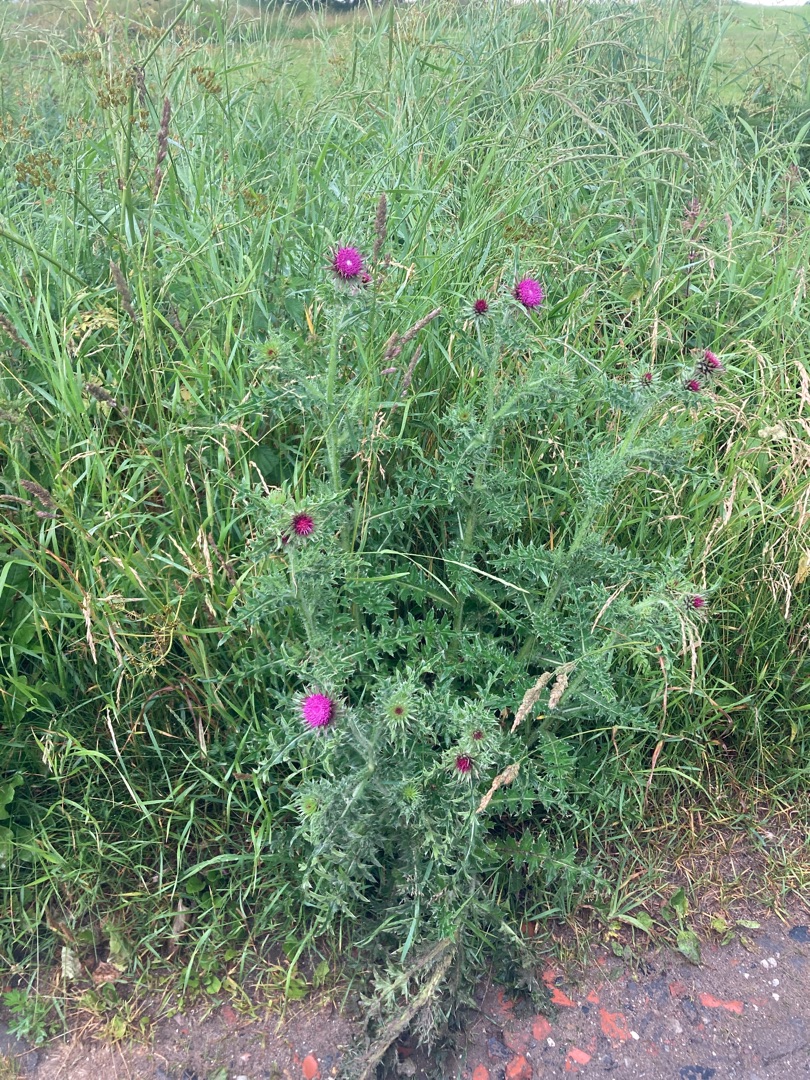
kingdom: Plantae
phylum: Tracheophyta
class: Magnoliopsida
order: Asterales
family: Asteraceae
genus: Carduus
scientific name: Carduus nutans
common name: Nikkende tidsel
